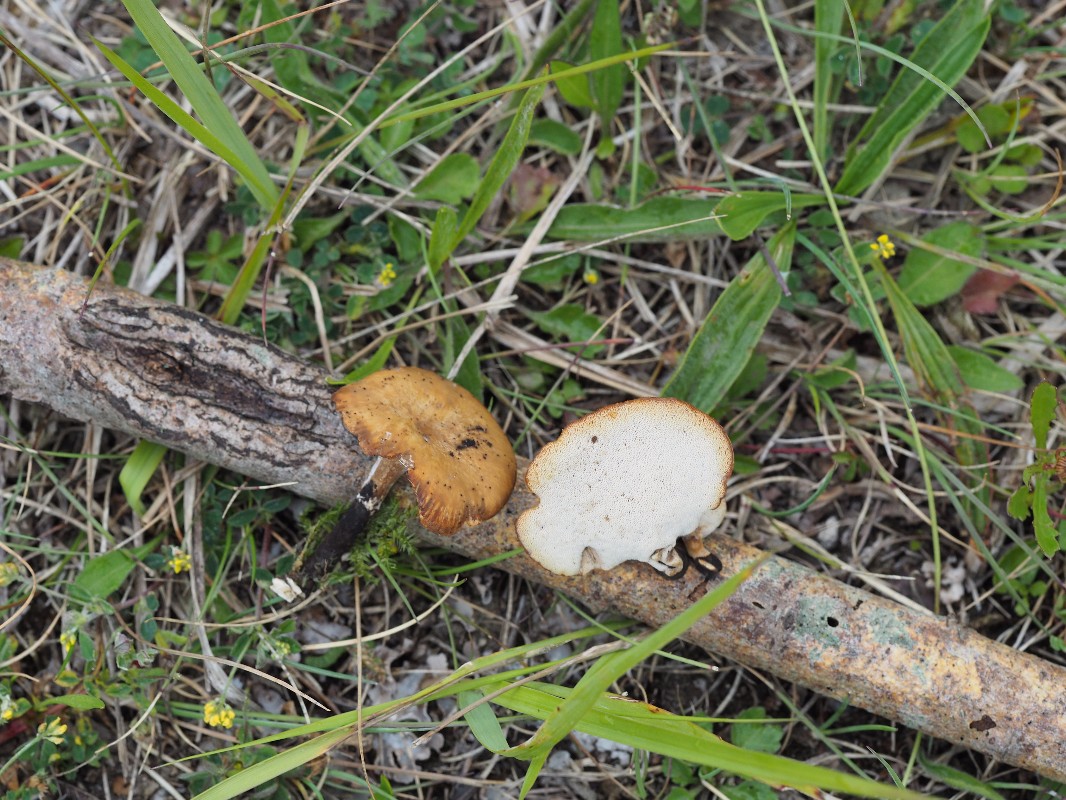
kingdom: Fungi
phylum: Basidiomycota
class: Agaricomycetes
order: Polyporales
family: Polyporaceae
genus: Cerioporus
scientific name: Cerioporus varius
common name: foranderlig stilkporesvamp
